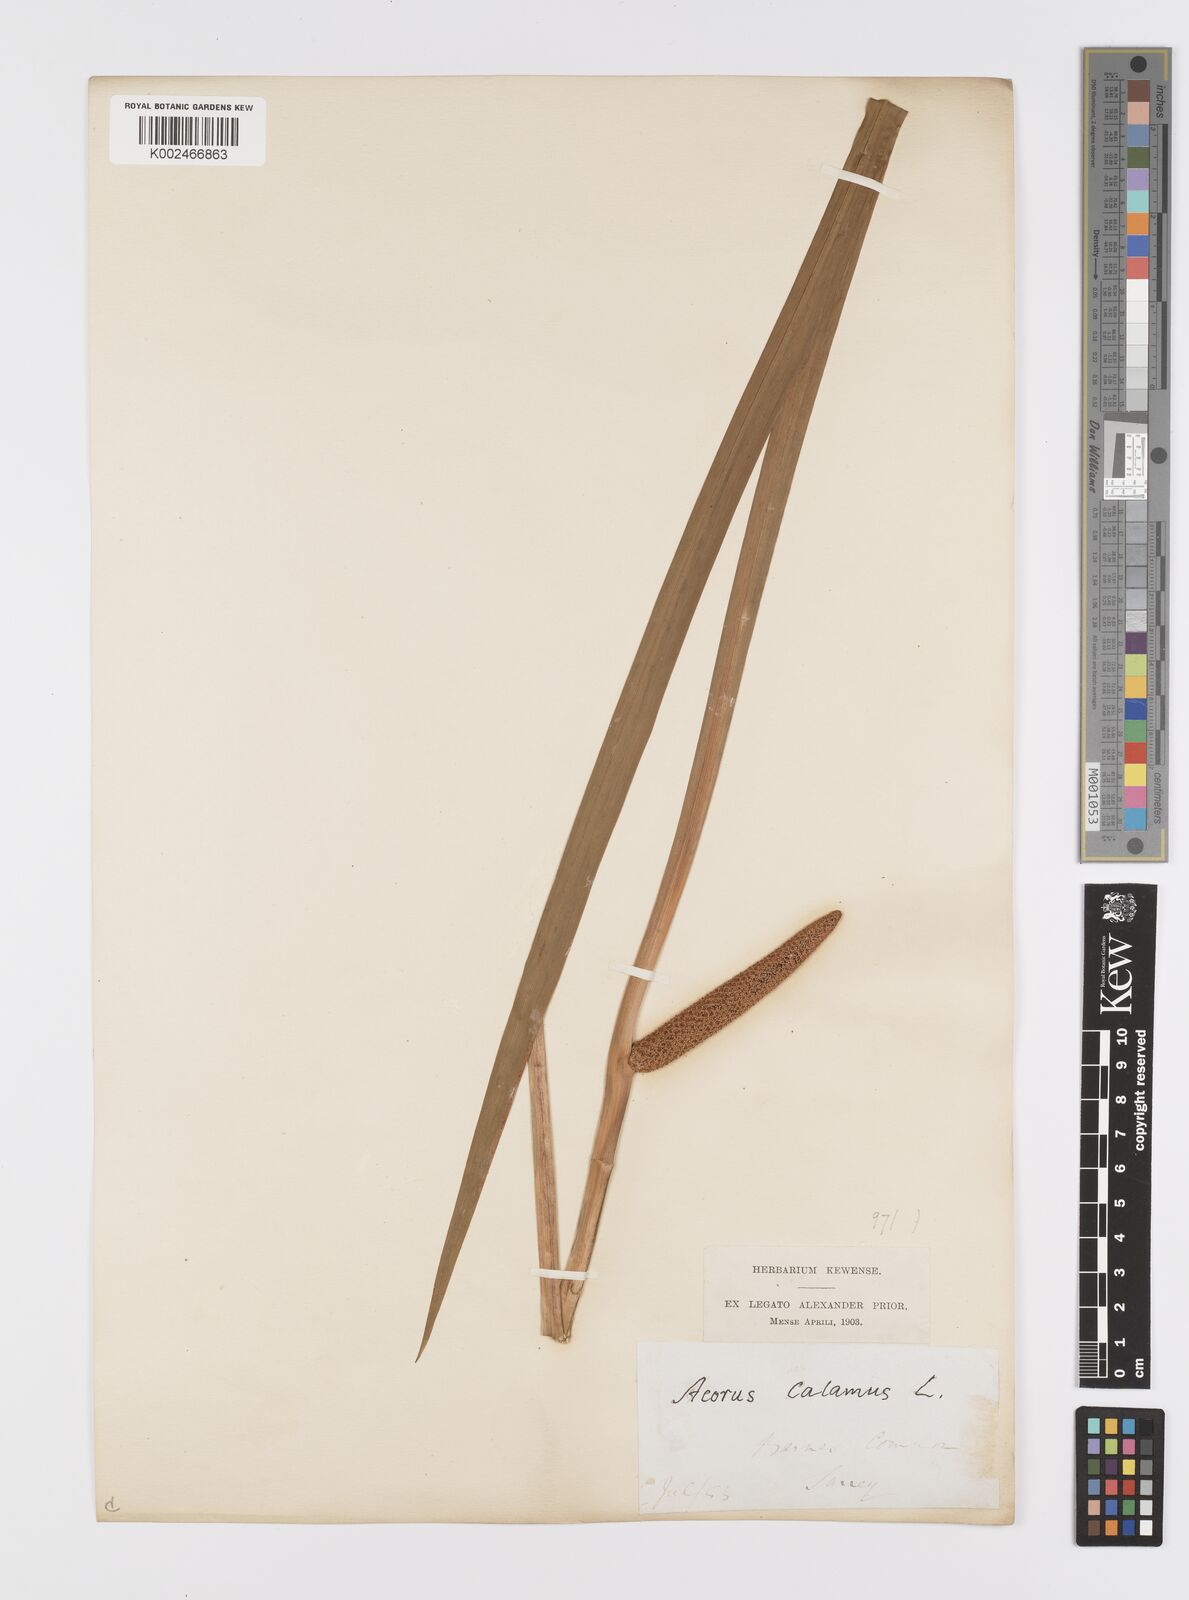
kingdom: Plantae
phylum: Tracheophyta
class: Liliopsida
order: Acorales
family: Acoraceae
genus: Acorus
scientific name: Acorus calamus
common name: Sweet-flag
